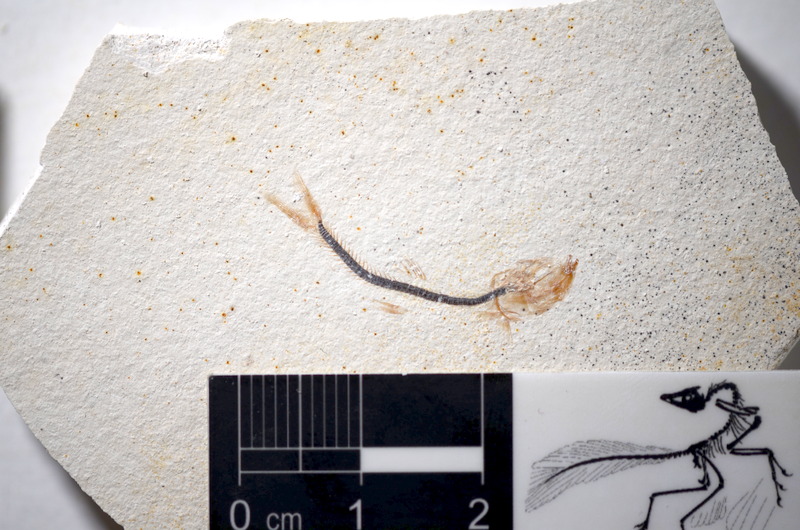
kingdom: Animalia
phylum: Chordata
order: Salmoniformes
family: Orthogonikleithridae
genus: Orthogonikleithrus
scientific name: Orthogonikleithrus hoelli
